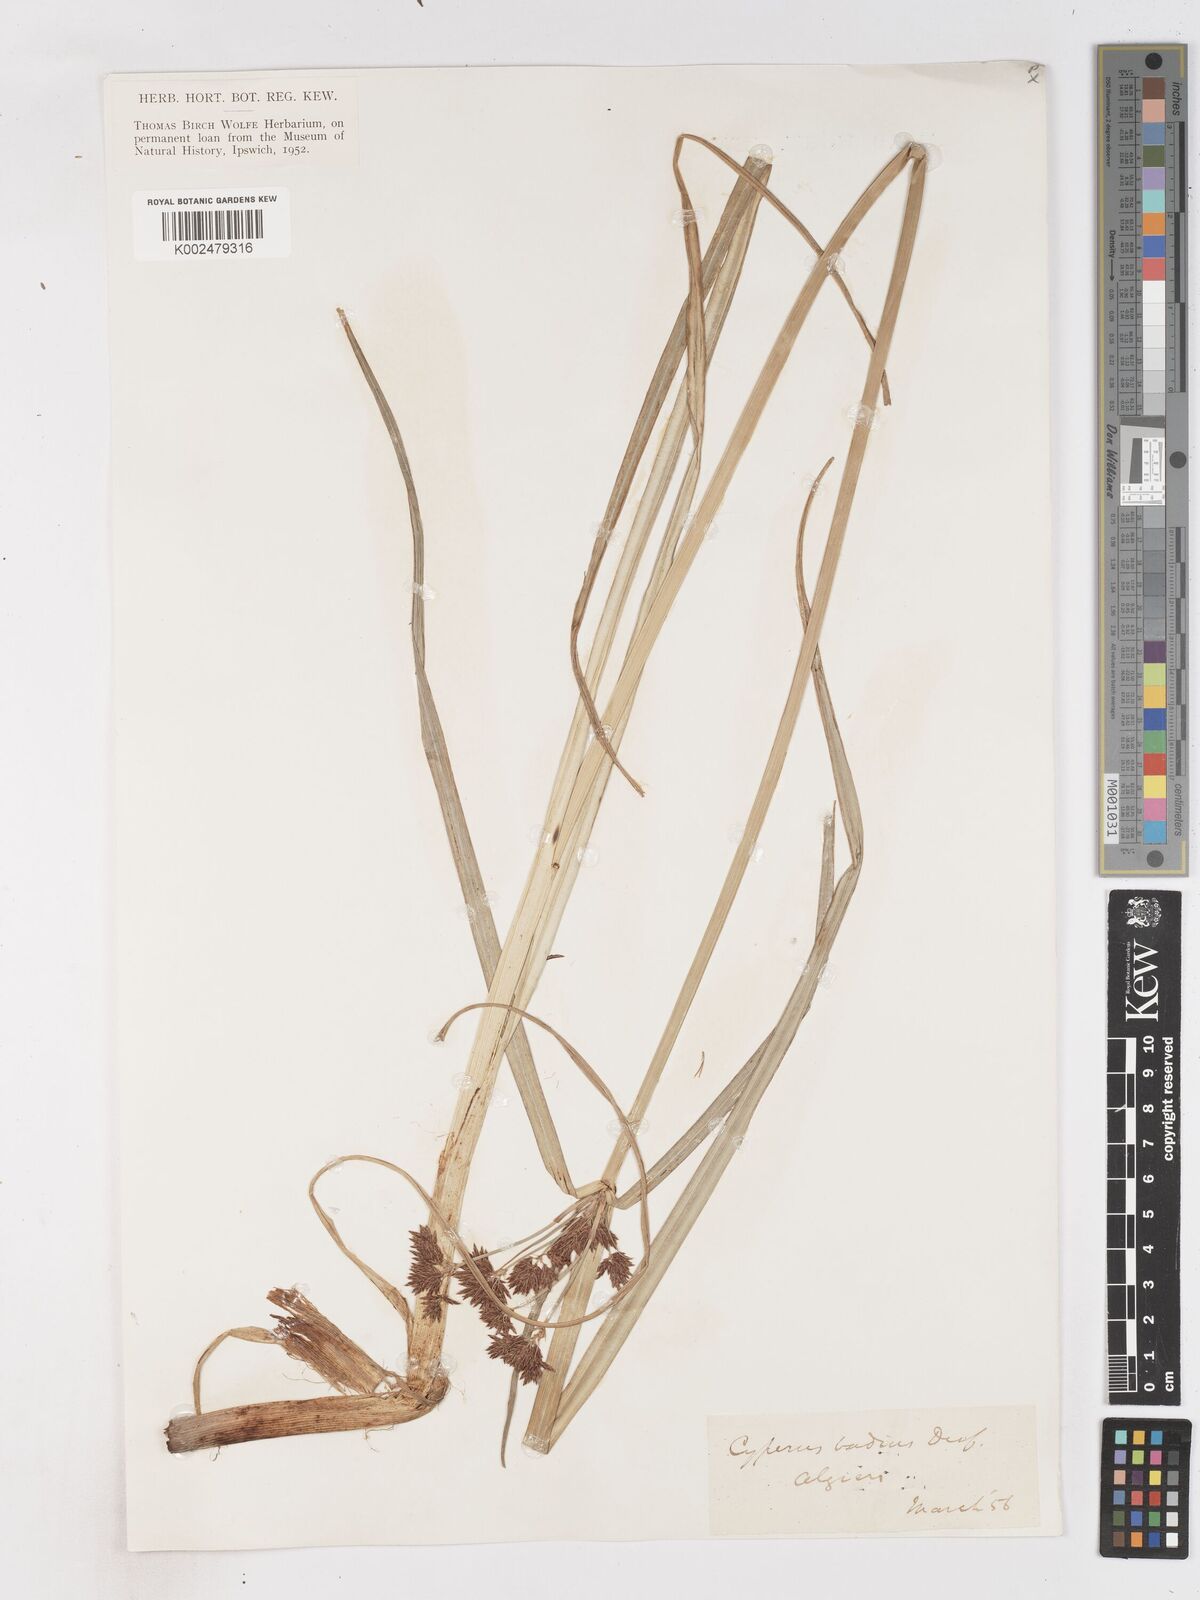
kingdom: Plantae
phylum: Tracheophyta
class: Liliopsida
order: Poales
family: Cyperaceae
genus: Cyperus
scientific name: Cyperus longus
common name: Galingale
